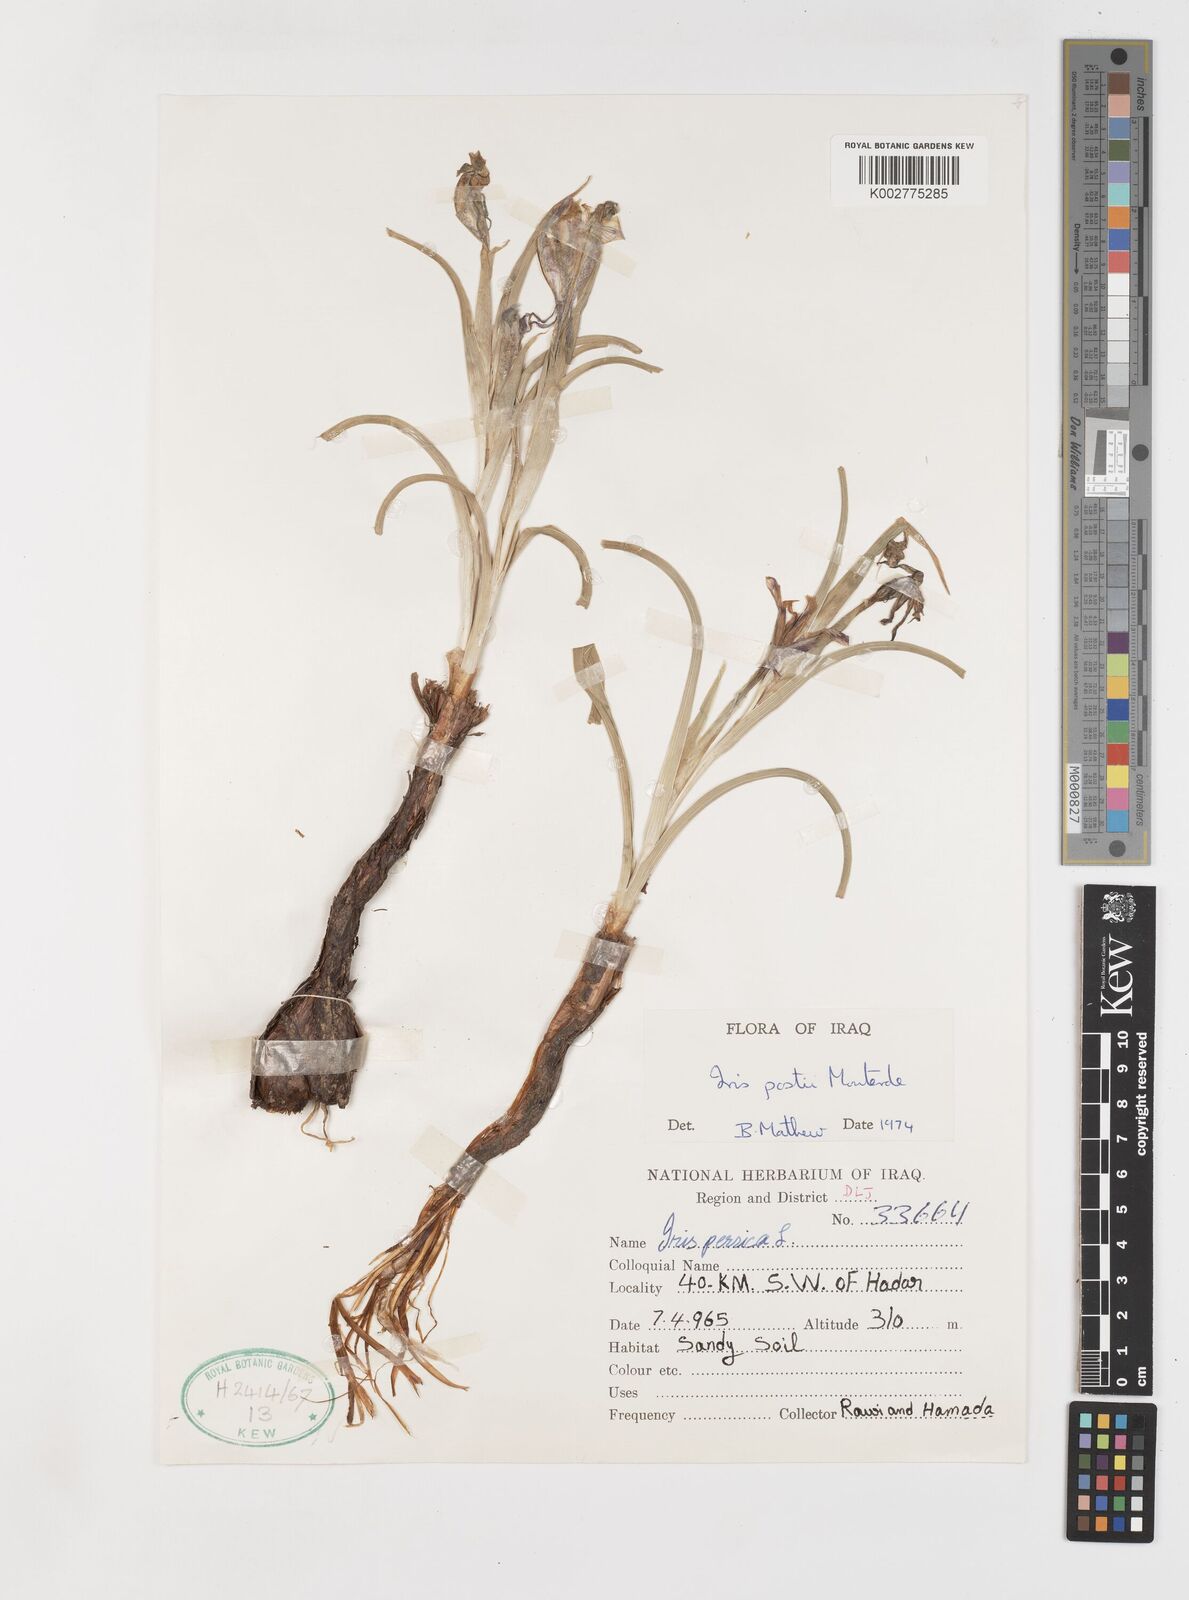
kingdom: Plantae
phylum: Tracheophyta
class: Liliopsida
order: Asparagales
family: Iridaceae
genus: Iris
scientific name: Iris postii
